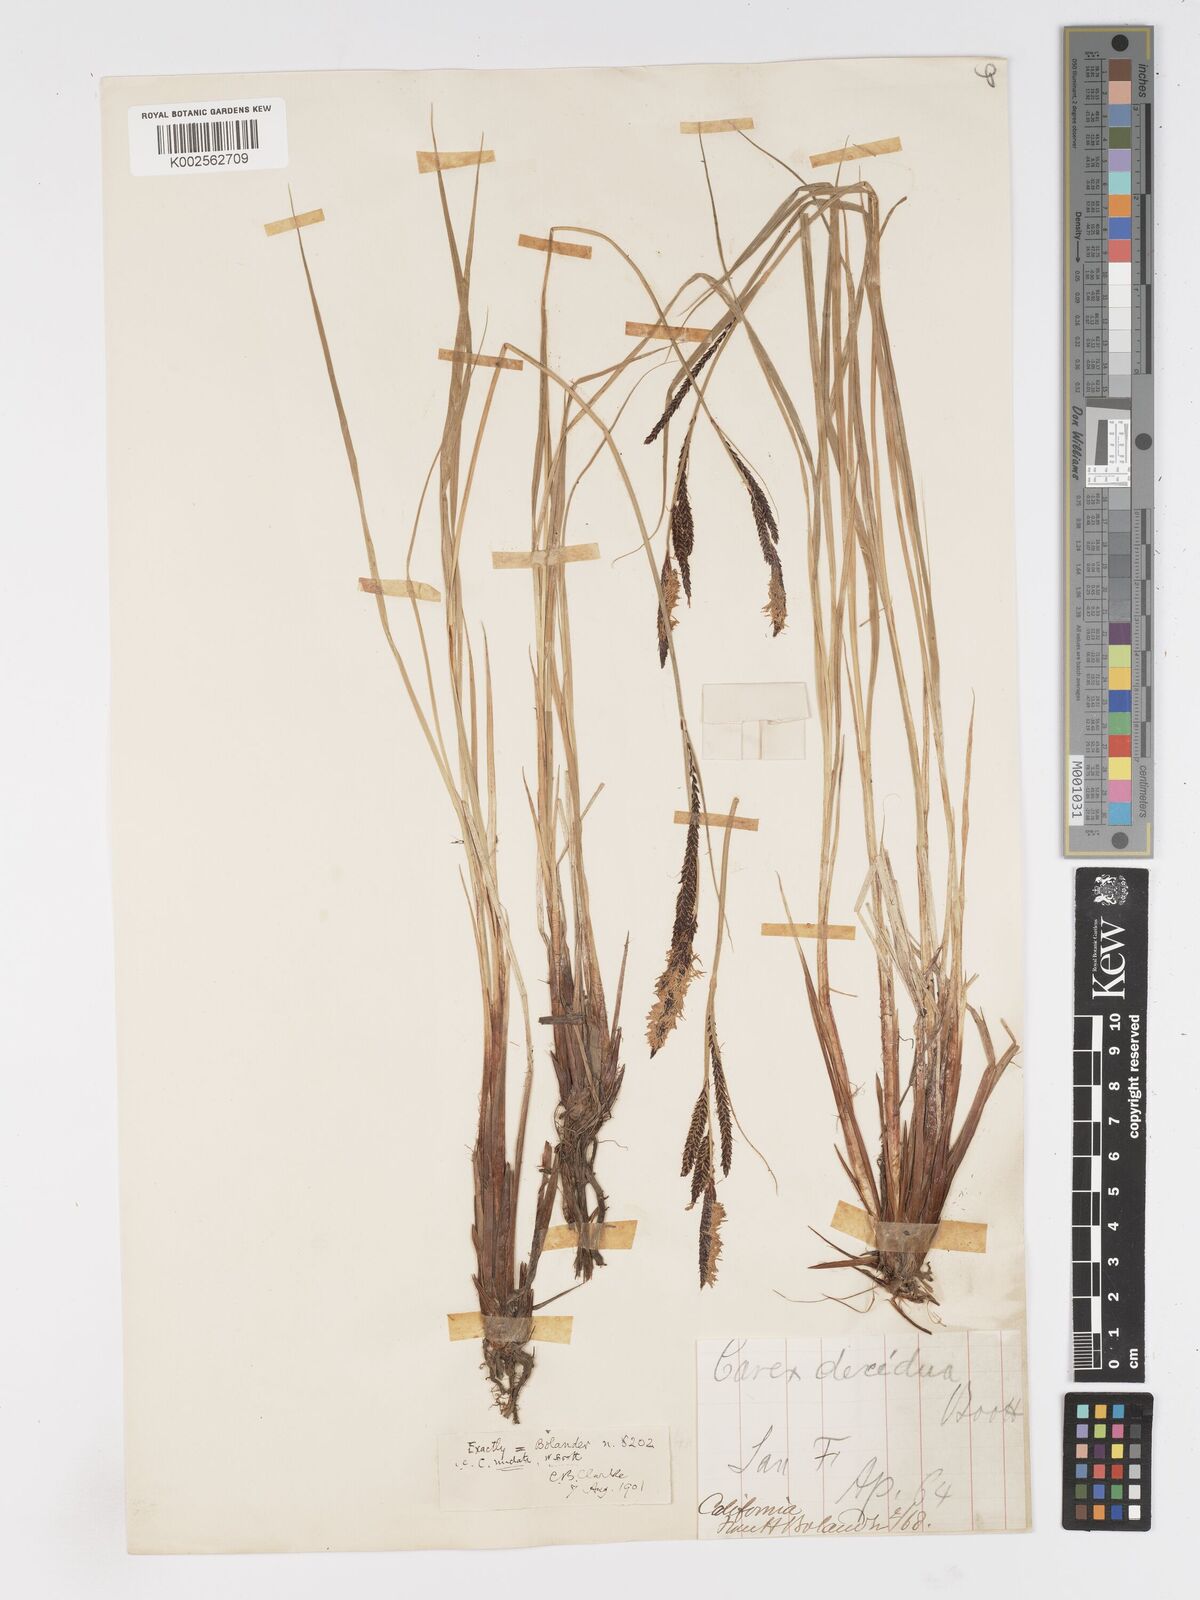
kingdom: Plantae
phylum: Tracheophyta
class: Liliopsida
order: Poales
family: Cyperaceae
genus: Carex
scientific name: Carex nudata
